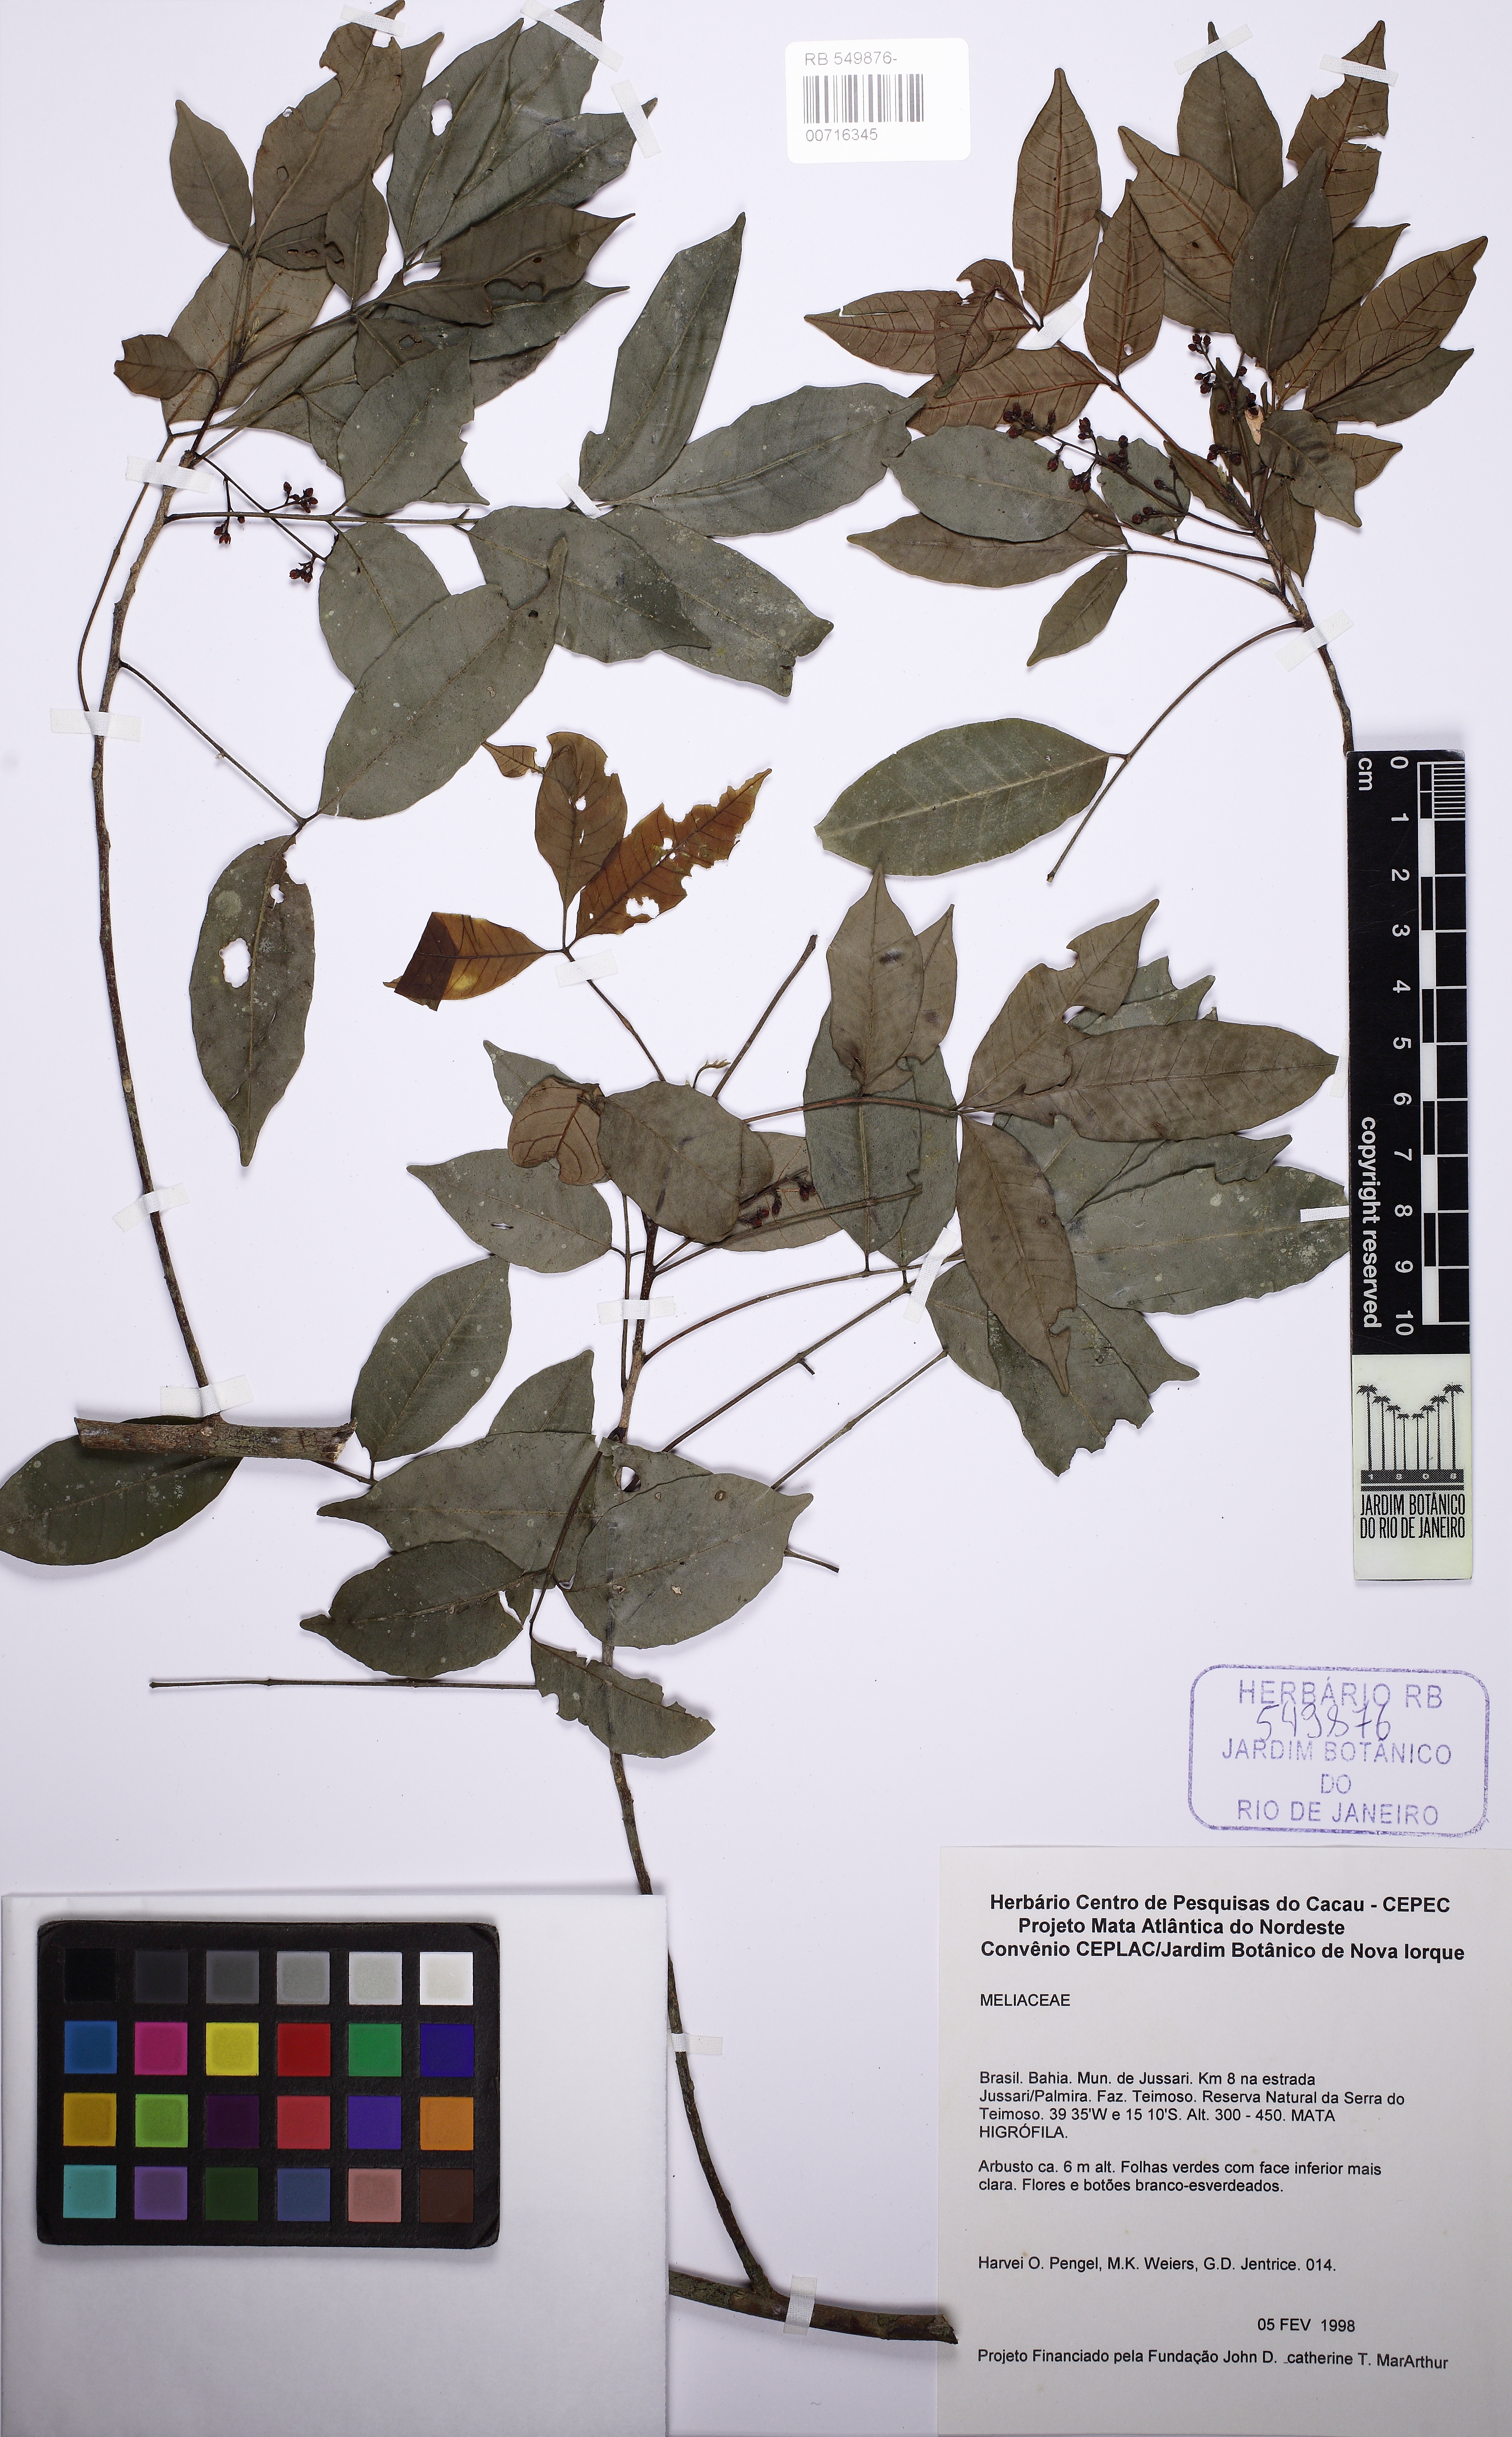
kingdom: Plantae
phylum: Tracheophyta
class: Magnoliopsida
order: Sapindales
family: Meliaceae
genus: Trichilia
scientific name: Trichilia elegans
